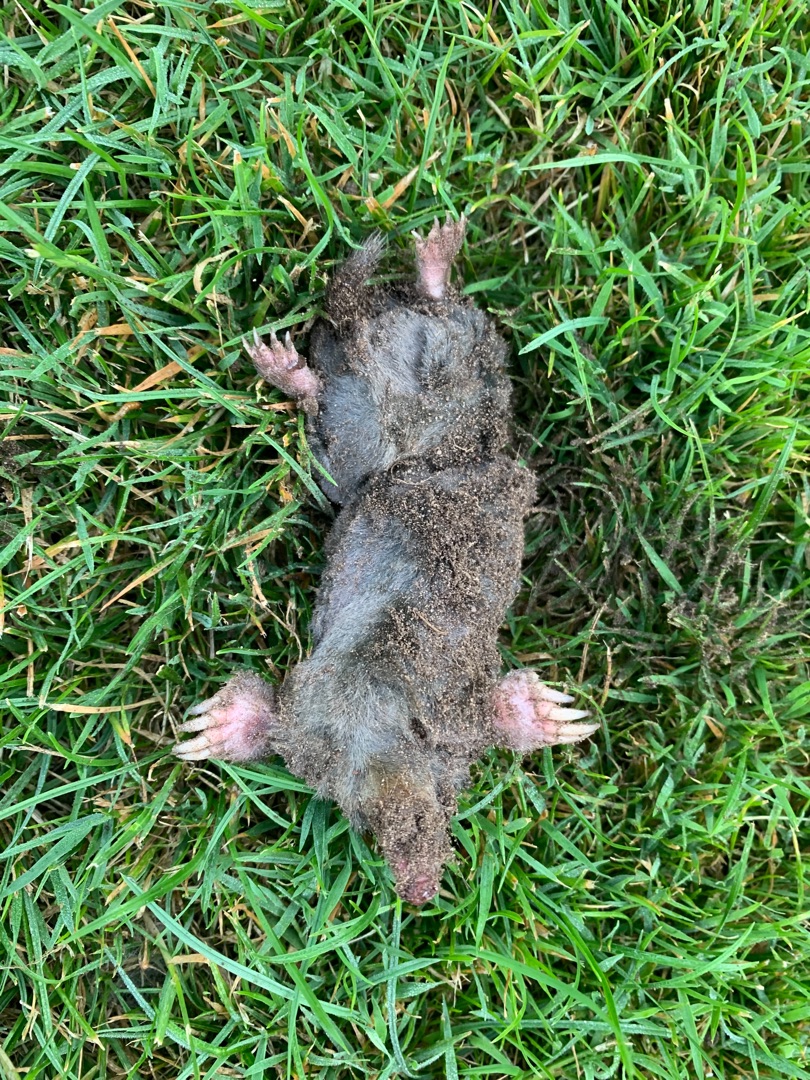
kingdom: Animalia
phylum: Chordata
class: Mammalia
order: Soricomorpha
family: Talpidae
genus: Talpa
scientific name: Talpa europaea
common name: Muldvarp
